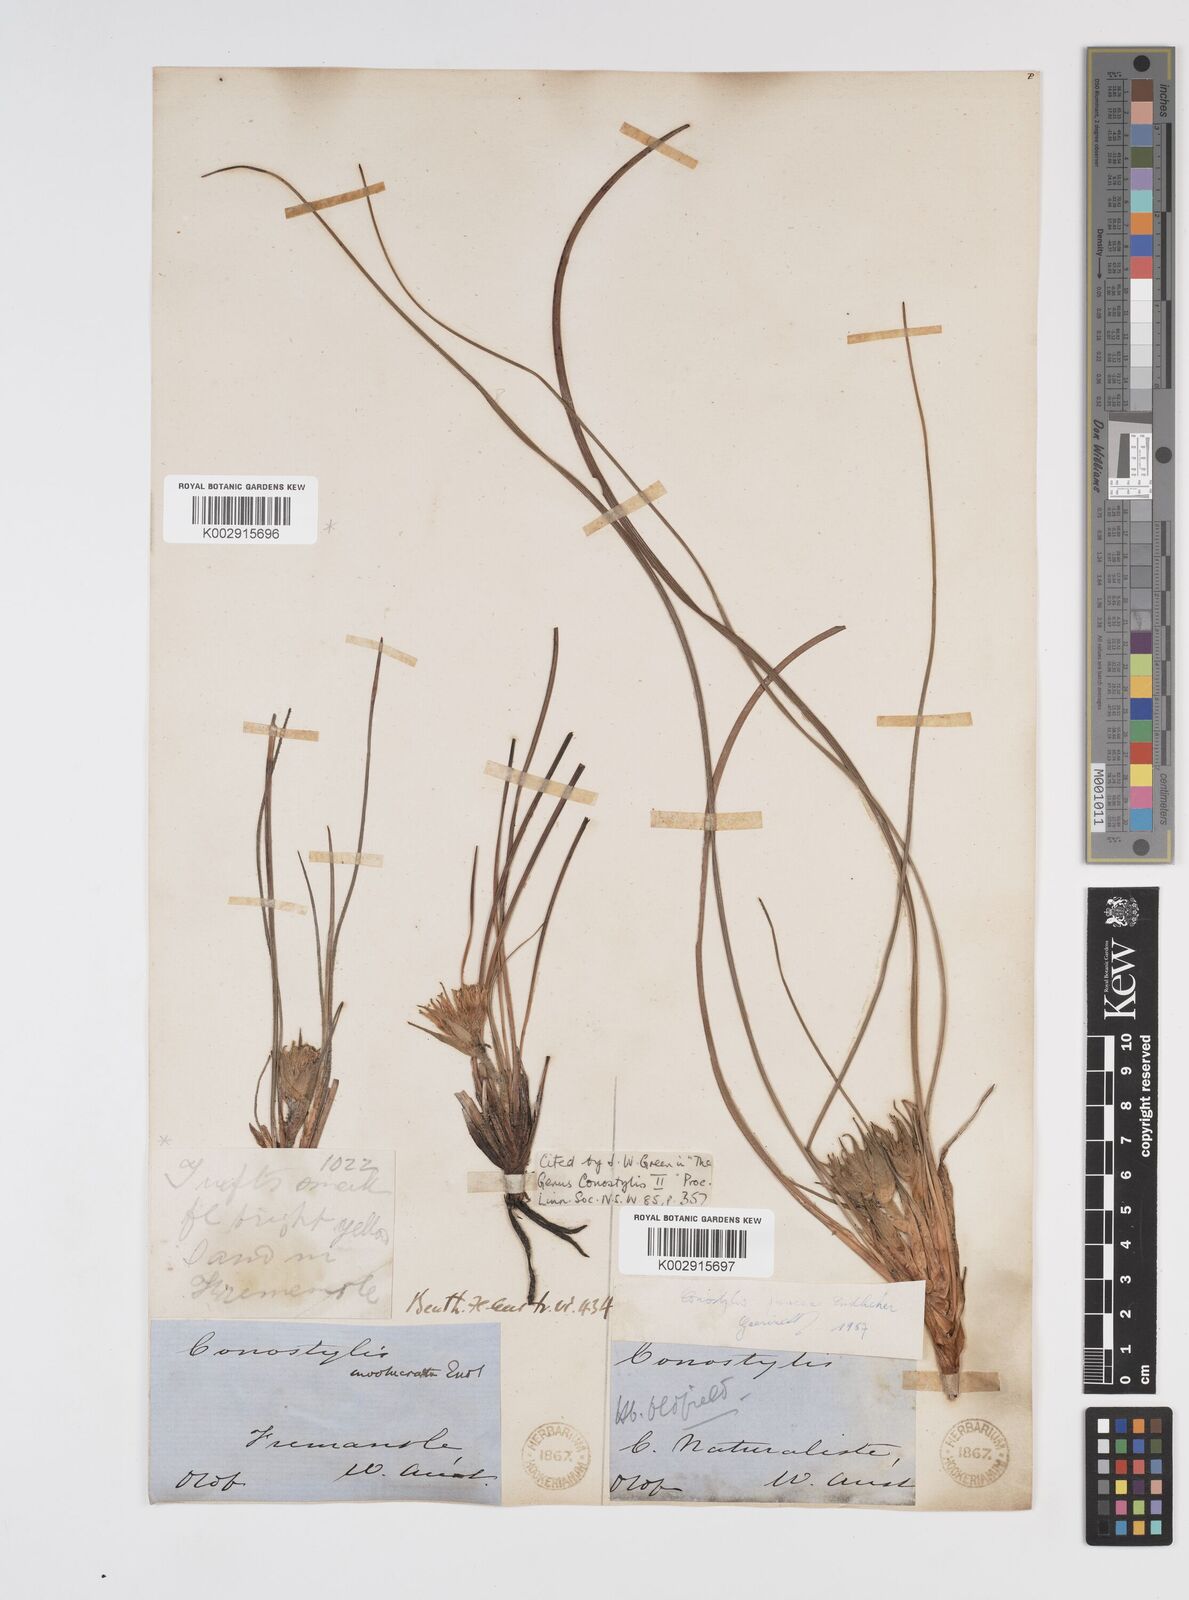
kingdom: Plantae
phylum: Tracheophyta
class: Liliopsida
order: Commelinales
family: Haemodoraceae
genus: Conostylis
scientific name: Conostylis juncea
